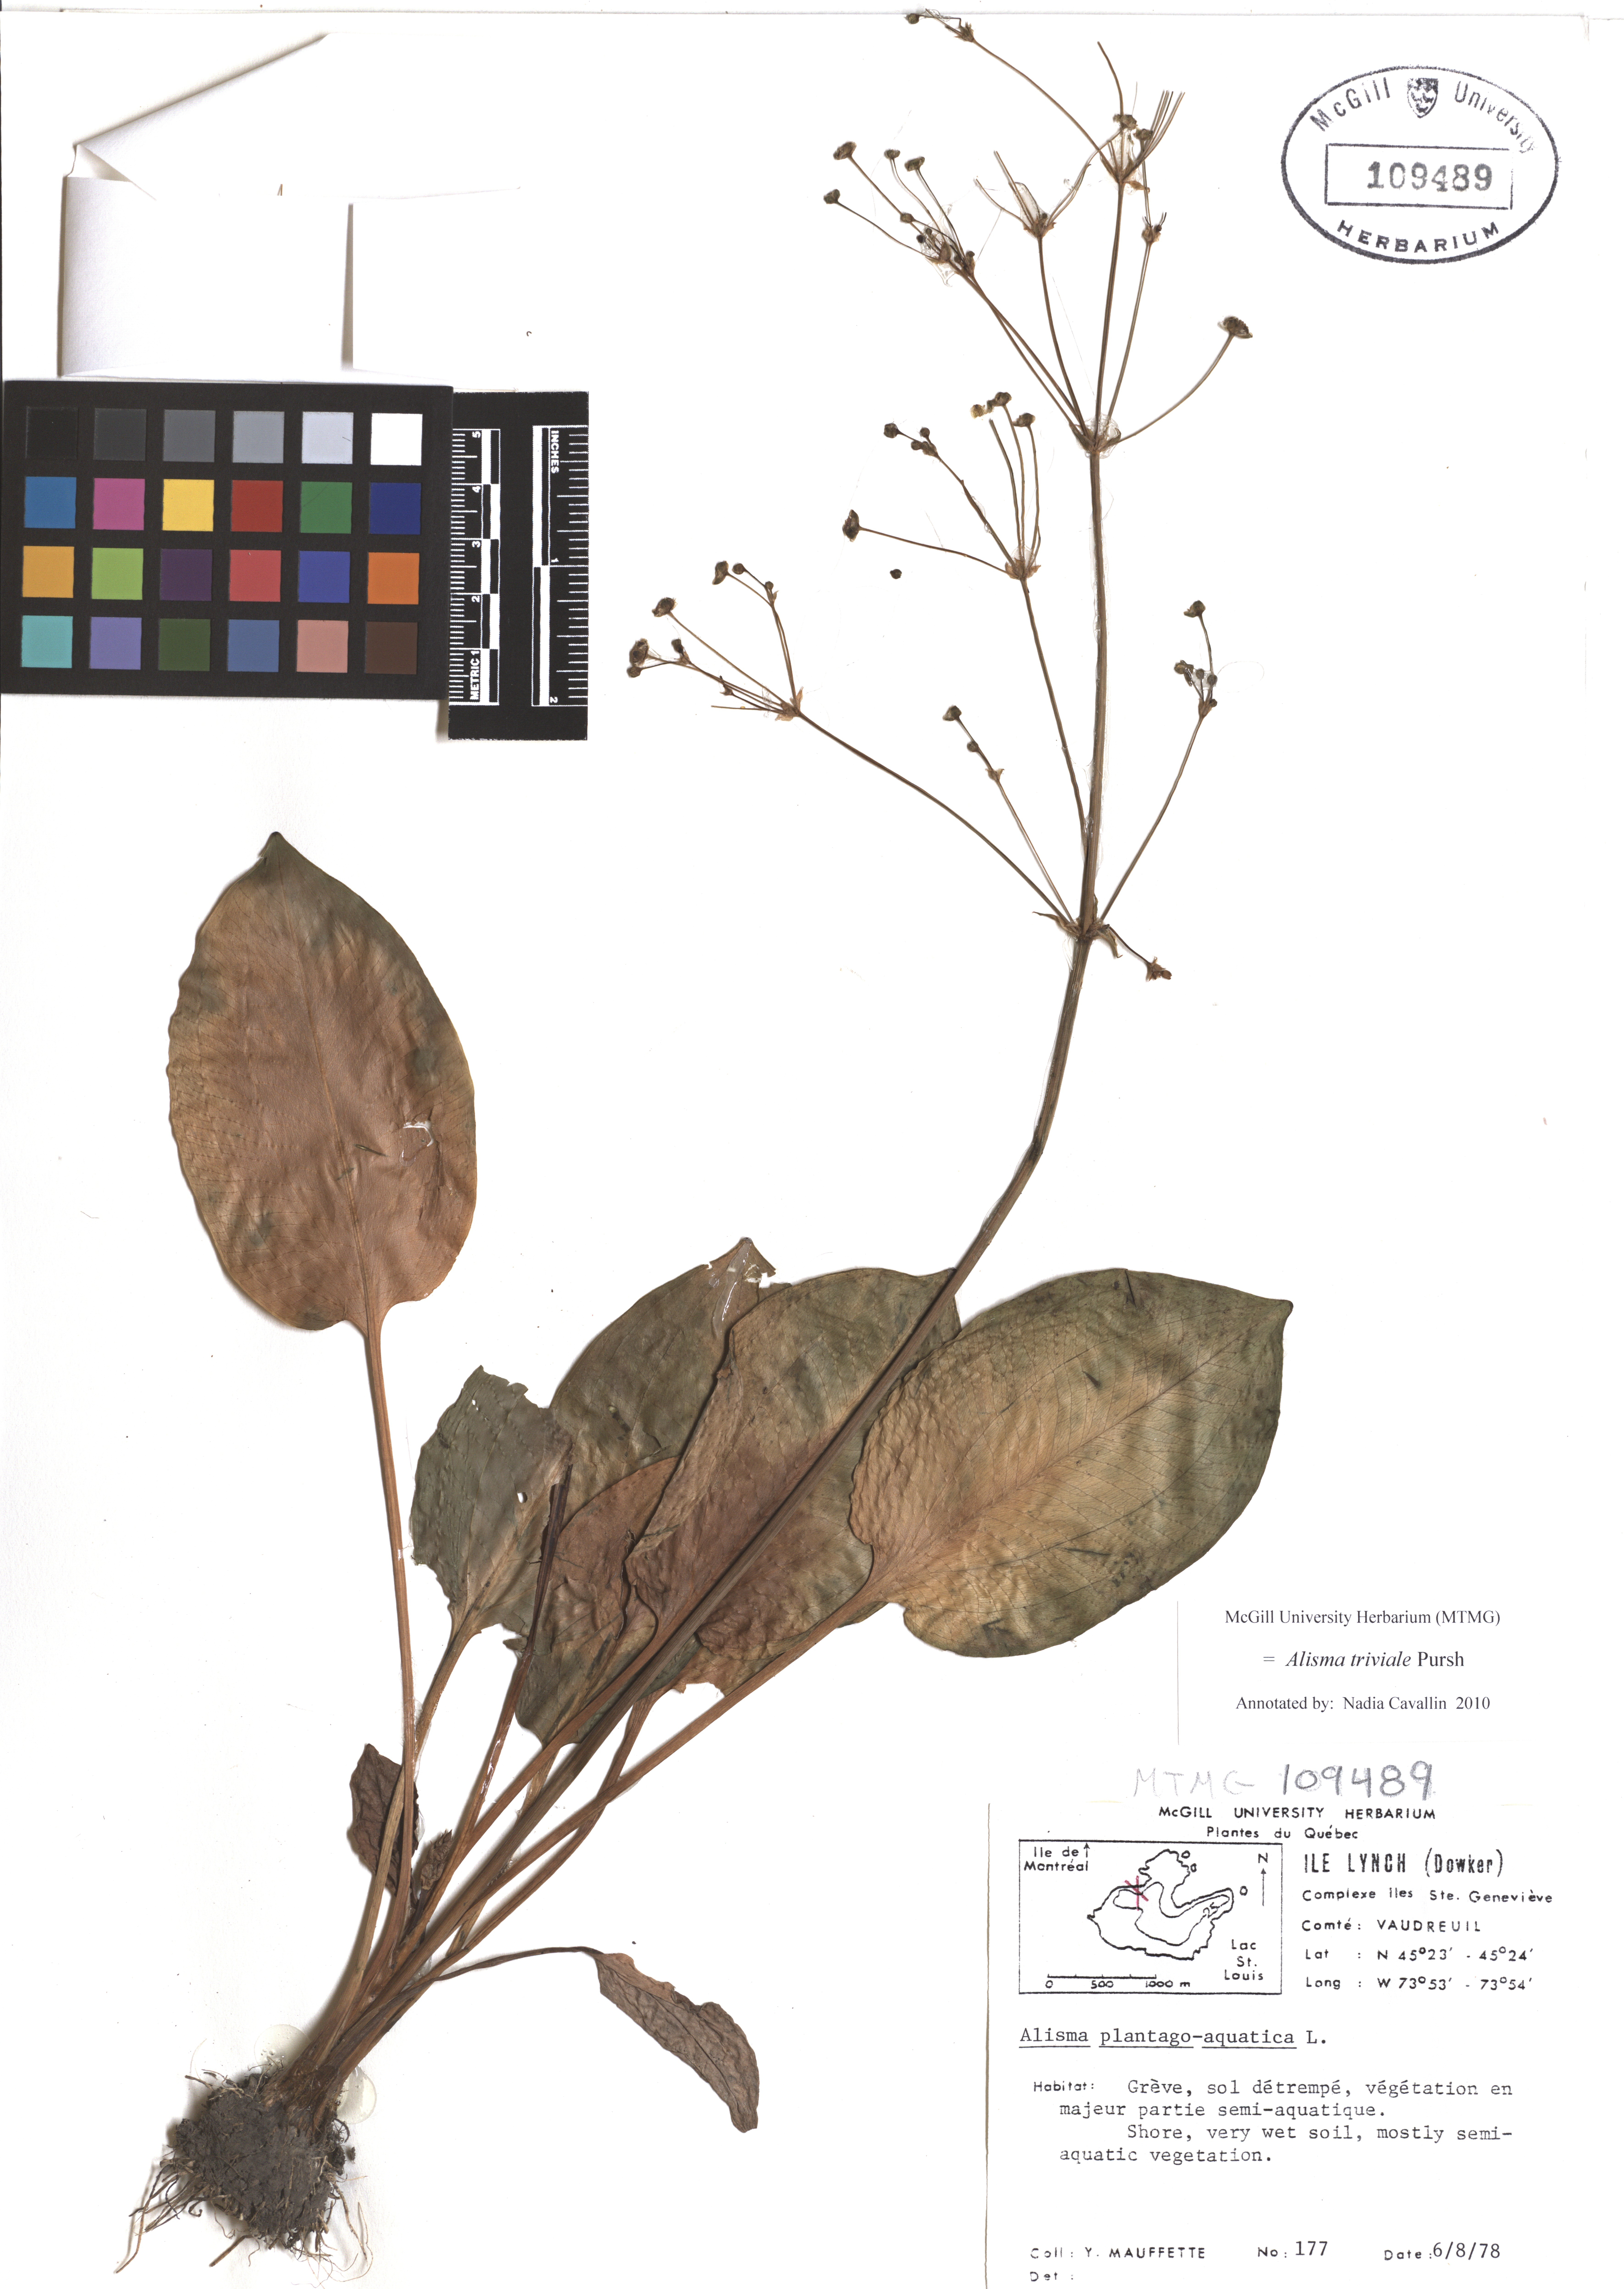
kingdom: Plantae
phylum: Tracheophyta
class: Liliopsida
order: Alismatales
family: Alismataceae
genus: Alisma
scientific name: Alisma triviale
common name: Northern water-plantain
